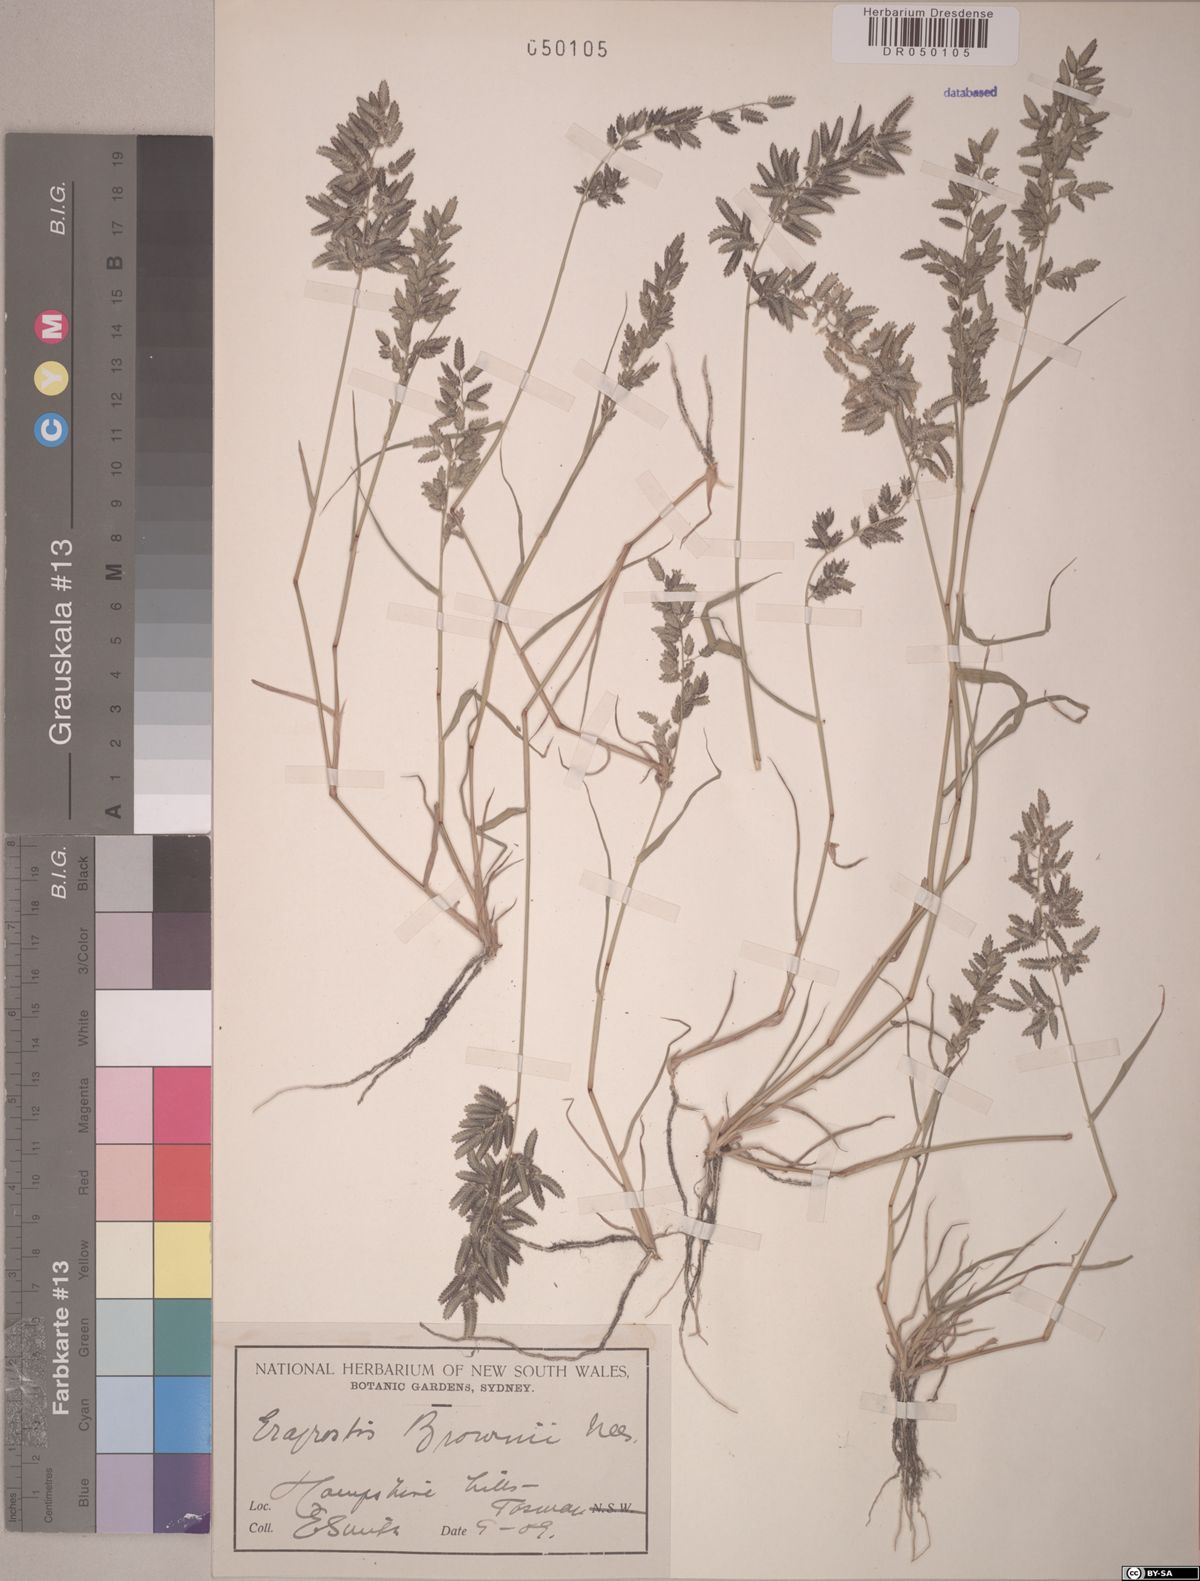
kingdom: Plantae
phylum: Tracheophyta
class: Liliopsida
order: Poales
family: Poaceae
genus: Eragrostis
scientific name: Eragrostis brownii
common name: Lovegrass
